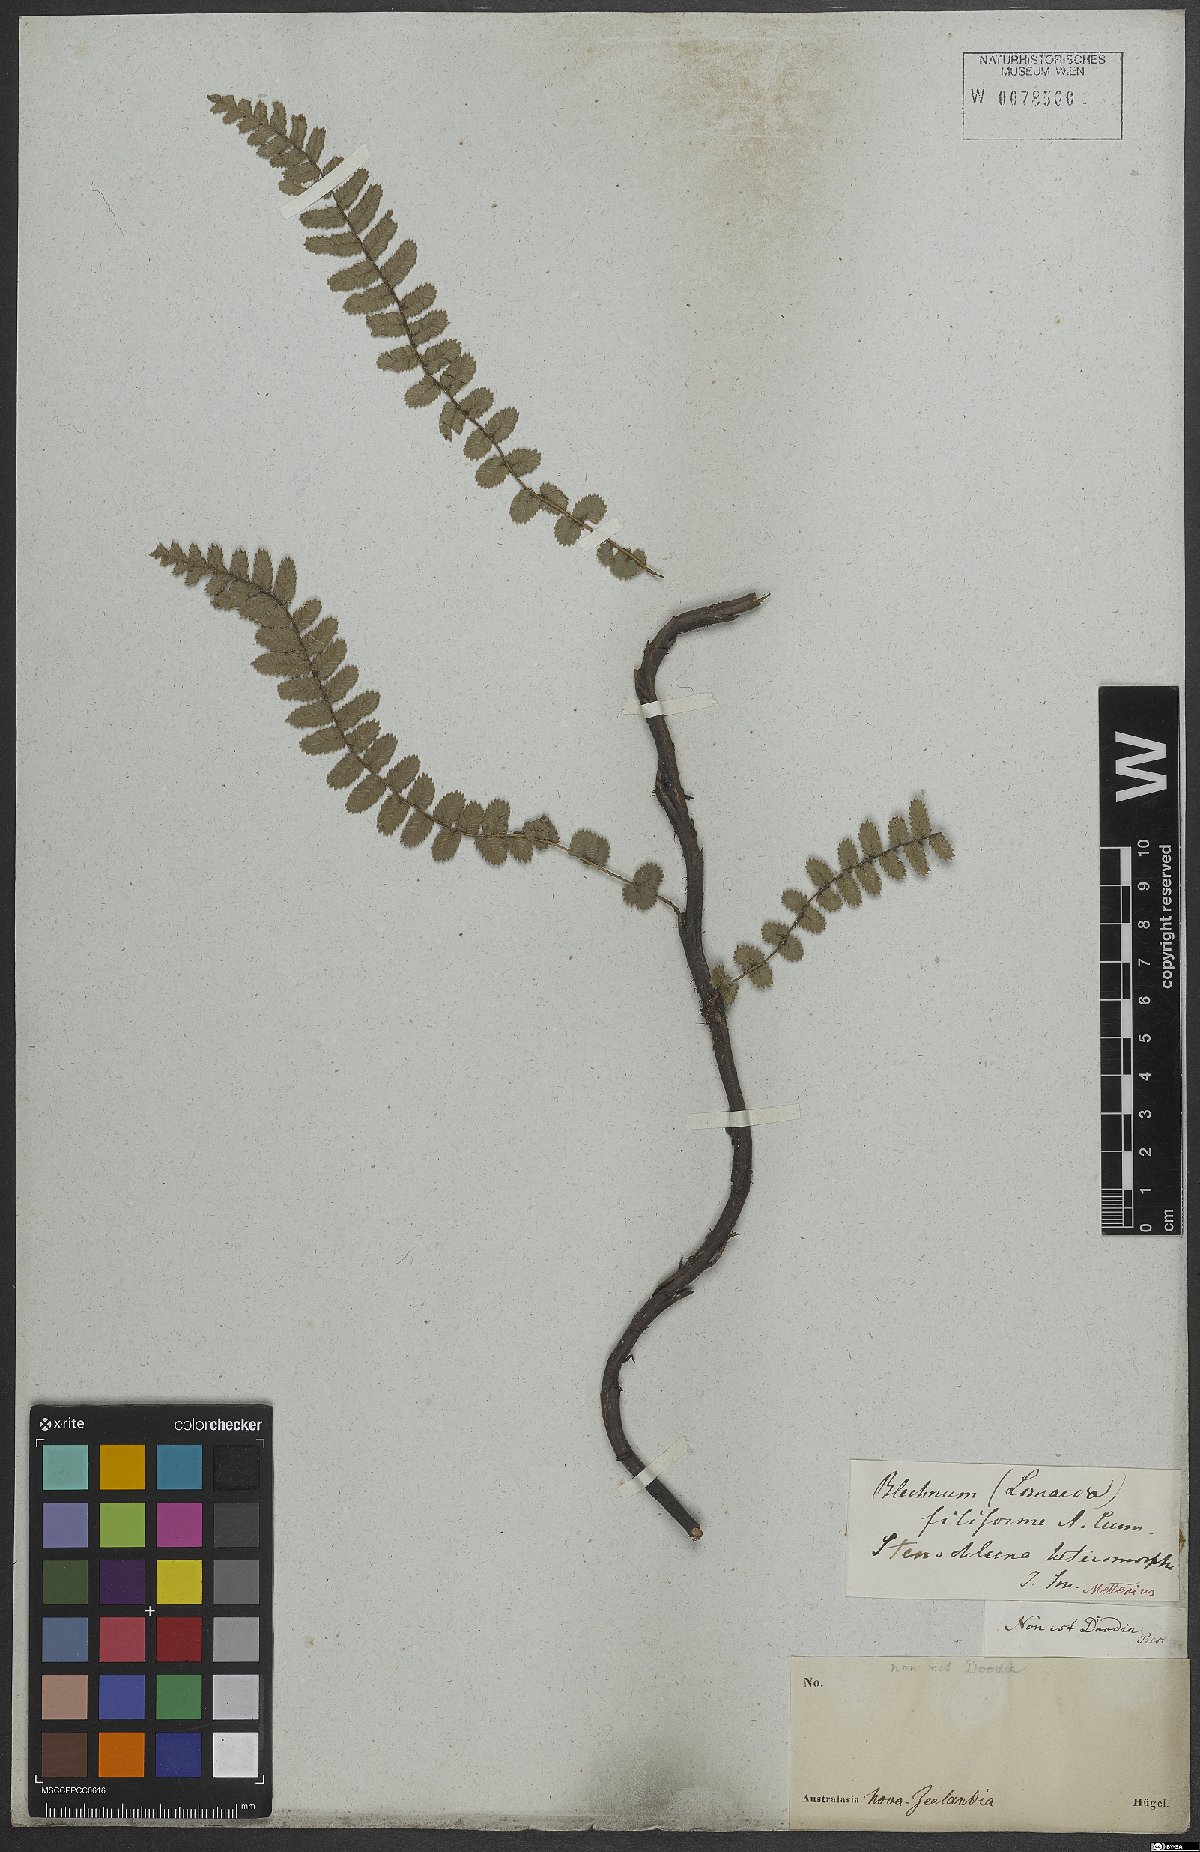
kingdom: Plantae
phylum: Tracheophyta
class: Polypodiopsida
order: Polypodiales
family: Blechnaceae
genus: Blechnum
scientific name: Blechnum
